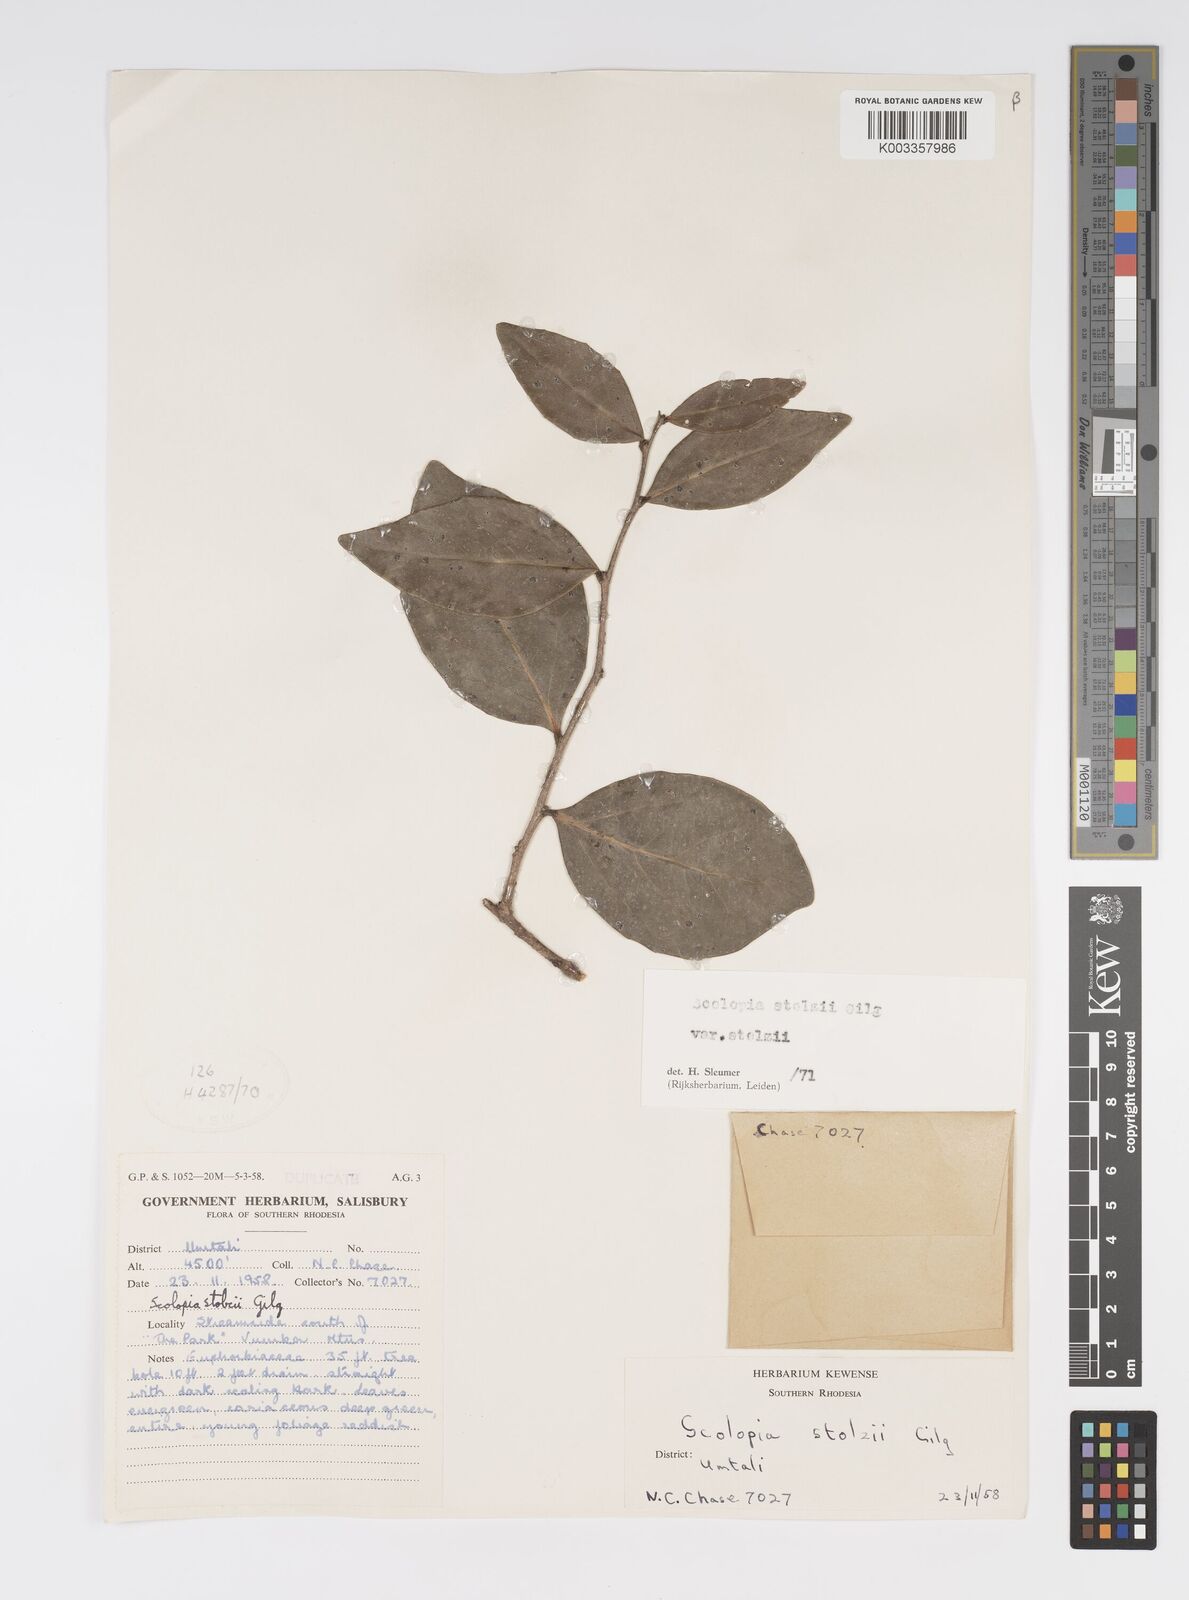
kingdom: Plantae
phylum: Tracheophyta
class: Magnoliopsida
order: Malpighiales
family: Salicaceae
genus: Scolopia
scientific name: Scolopia stolzii
